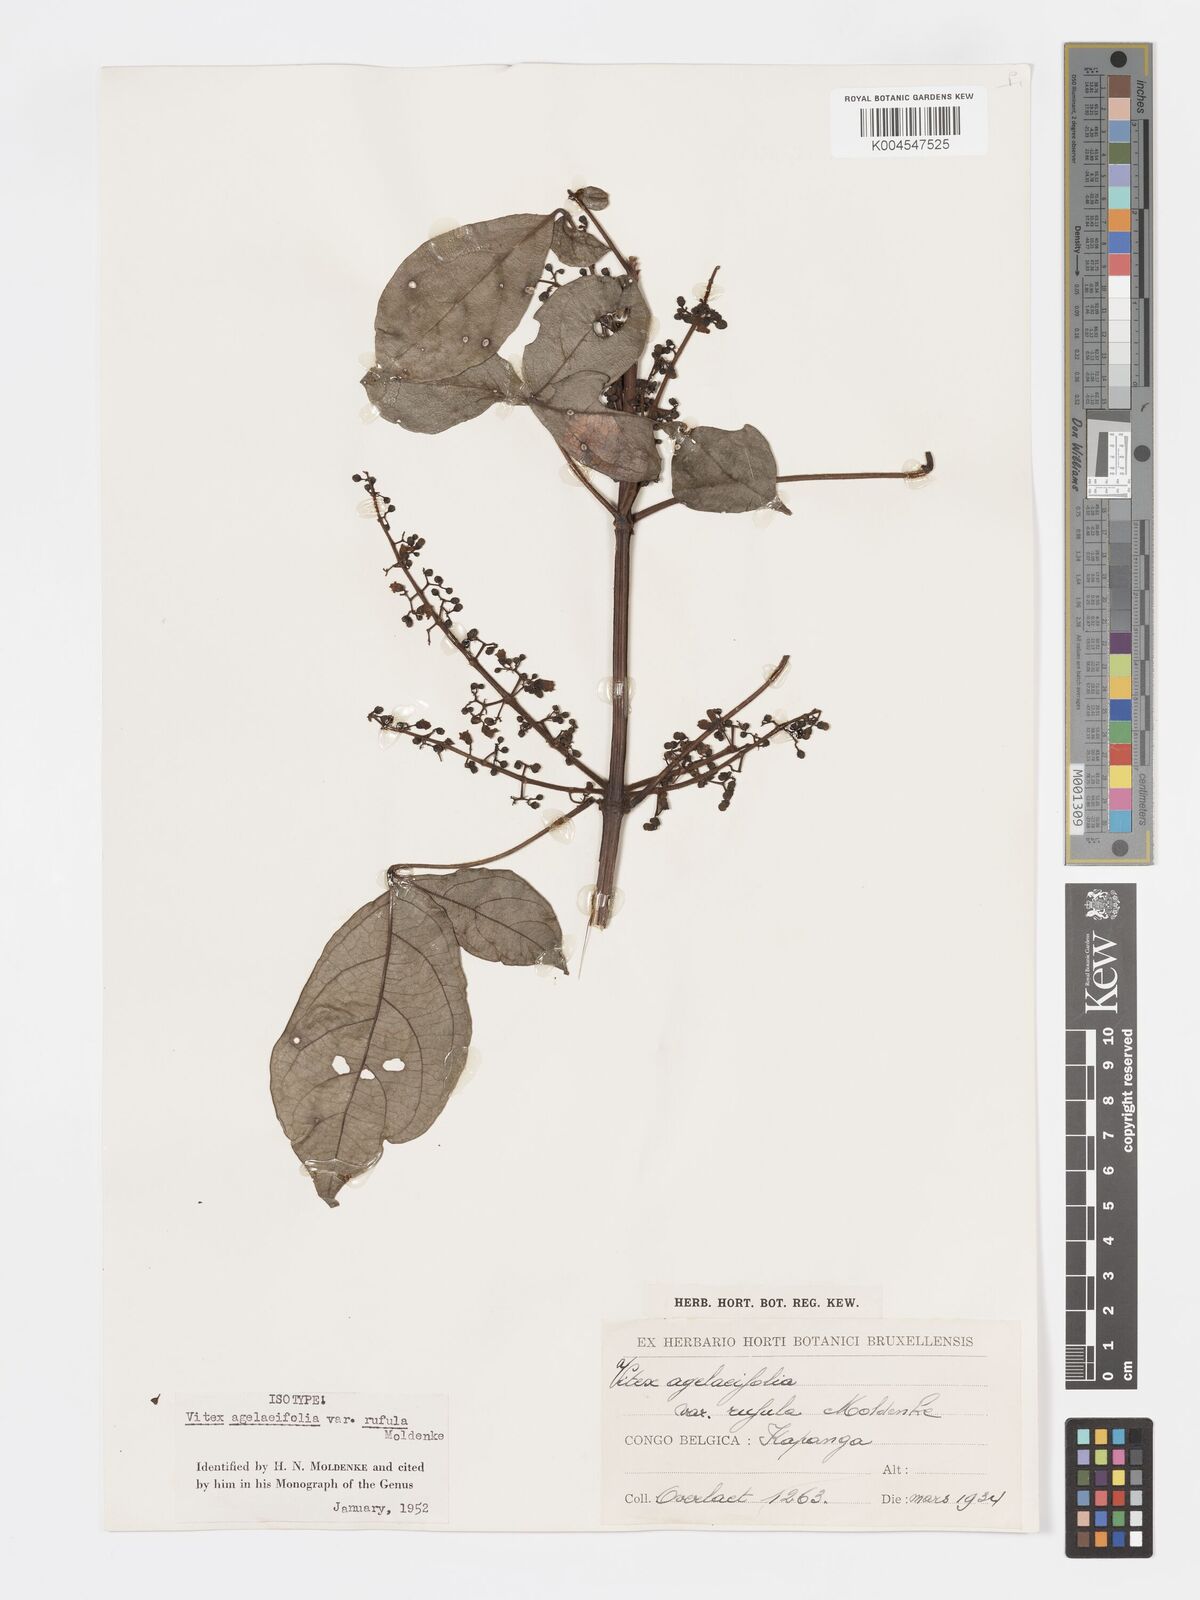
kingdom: Plantae
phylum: Tracheophyta
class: Magnoliopsida
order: Lamiales
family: Lamiaceae
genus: Vitex
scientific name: Vitex agelaeifolia
